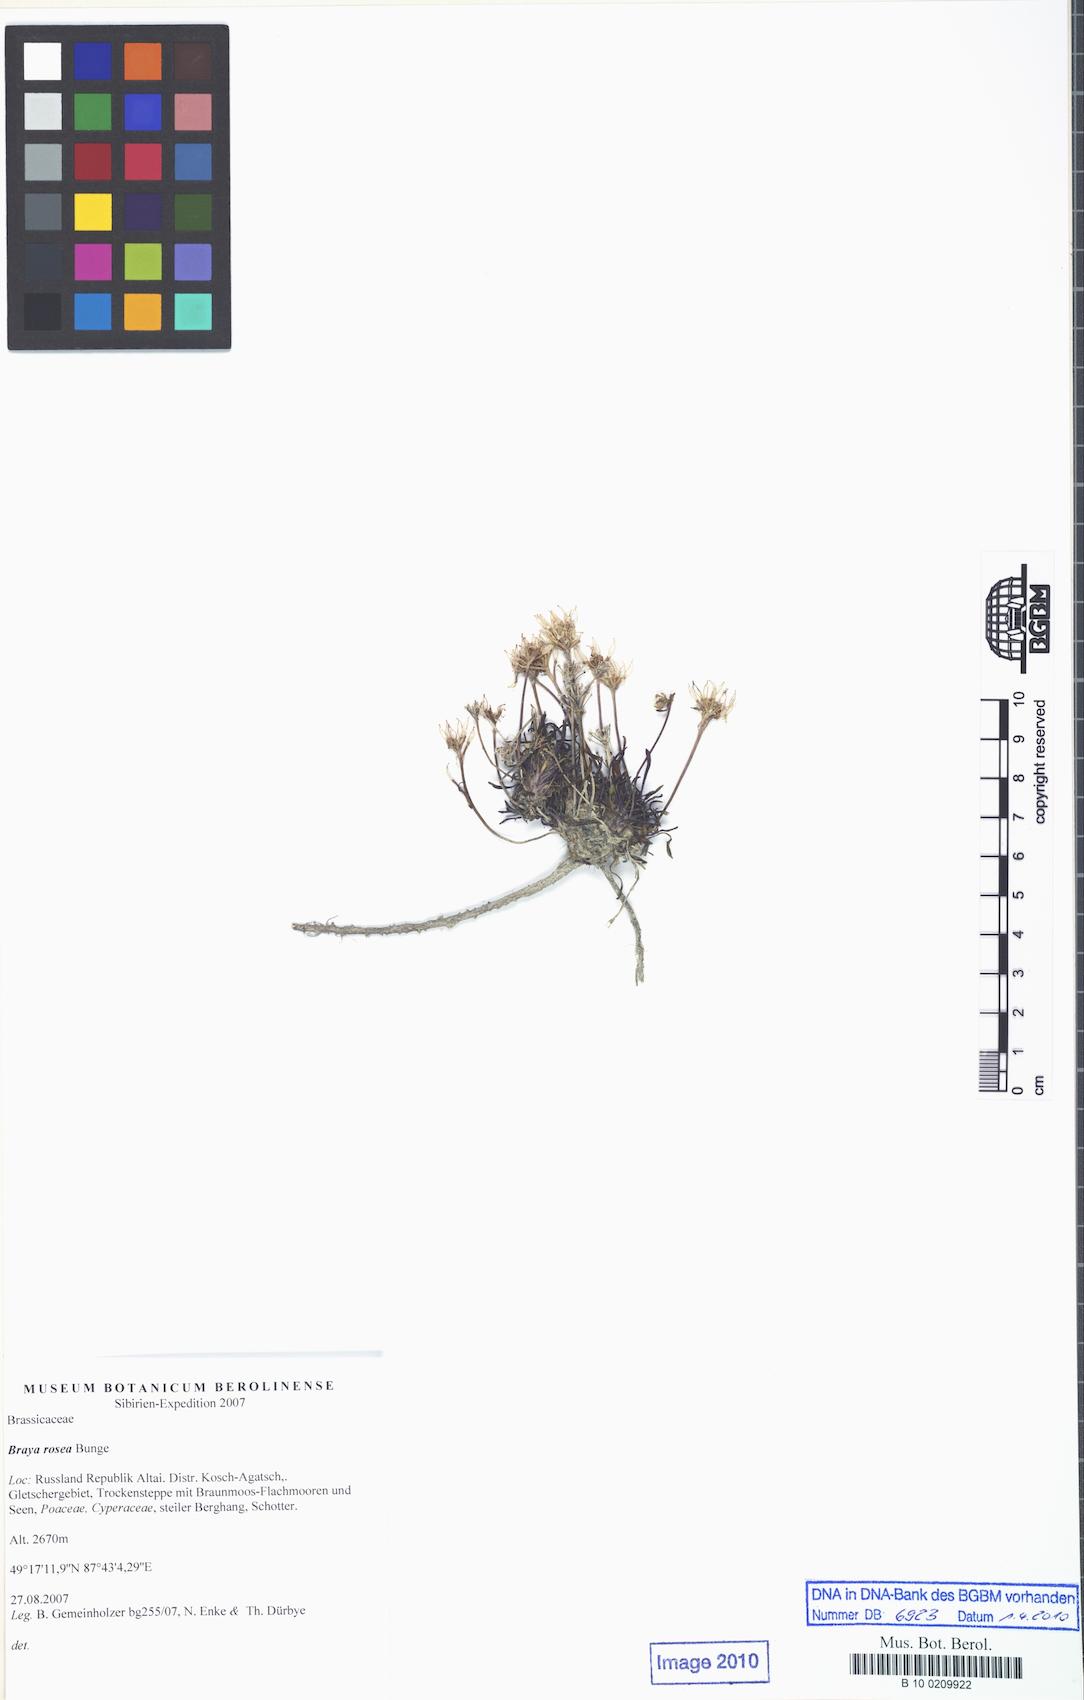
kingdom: Plantae
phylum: Tracheophyta
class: Magnoliopsida
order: Brassicales
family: Brassicaceae
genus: Braya
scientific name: Braya rosea
